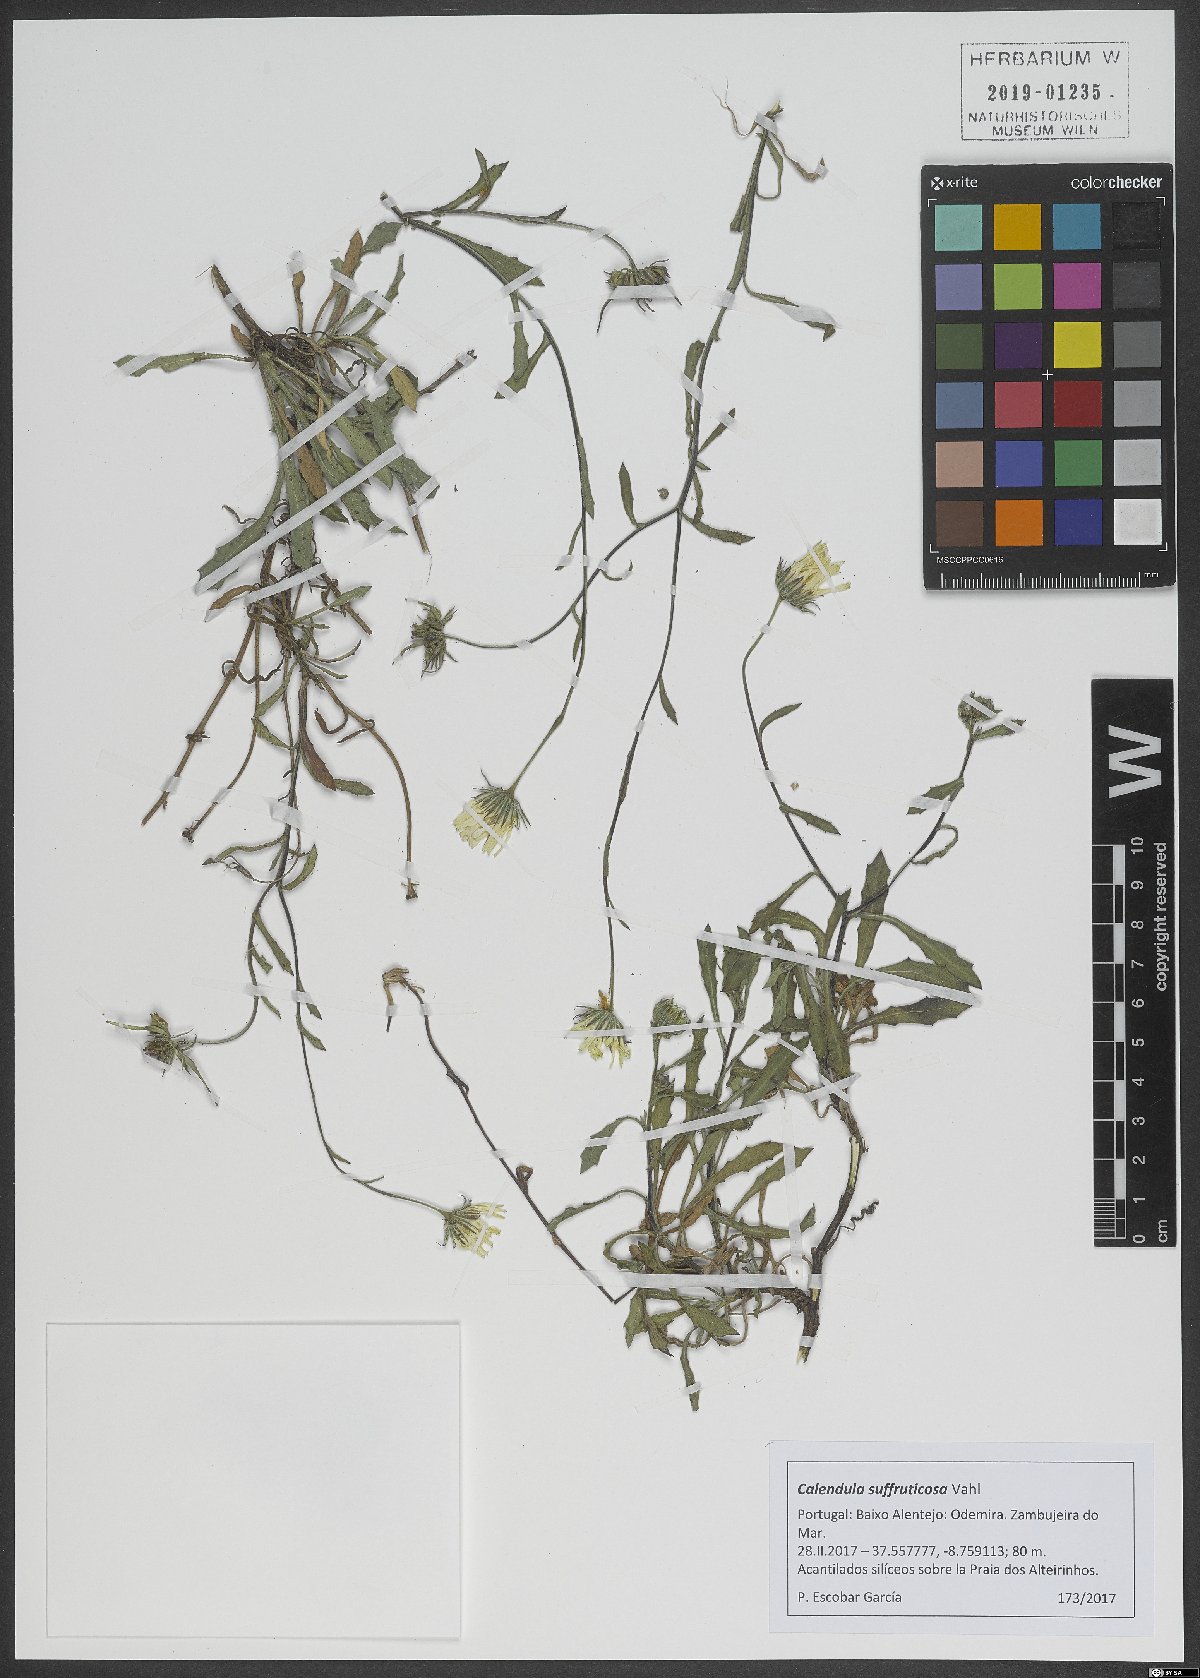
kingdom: Plantae
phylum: Tracheophyta
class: Magnoliopsida
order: Asterales
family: Asteraceae
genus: Calendula
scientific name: Calendula suffruticosa
